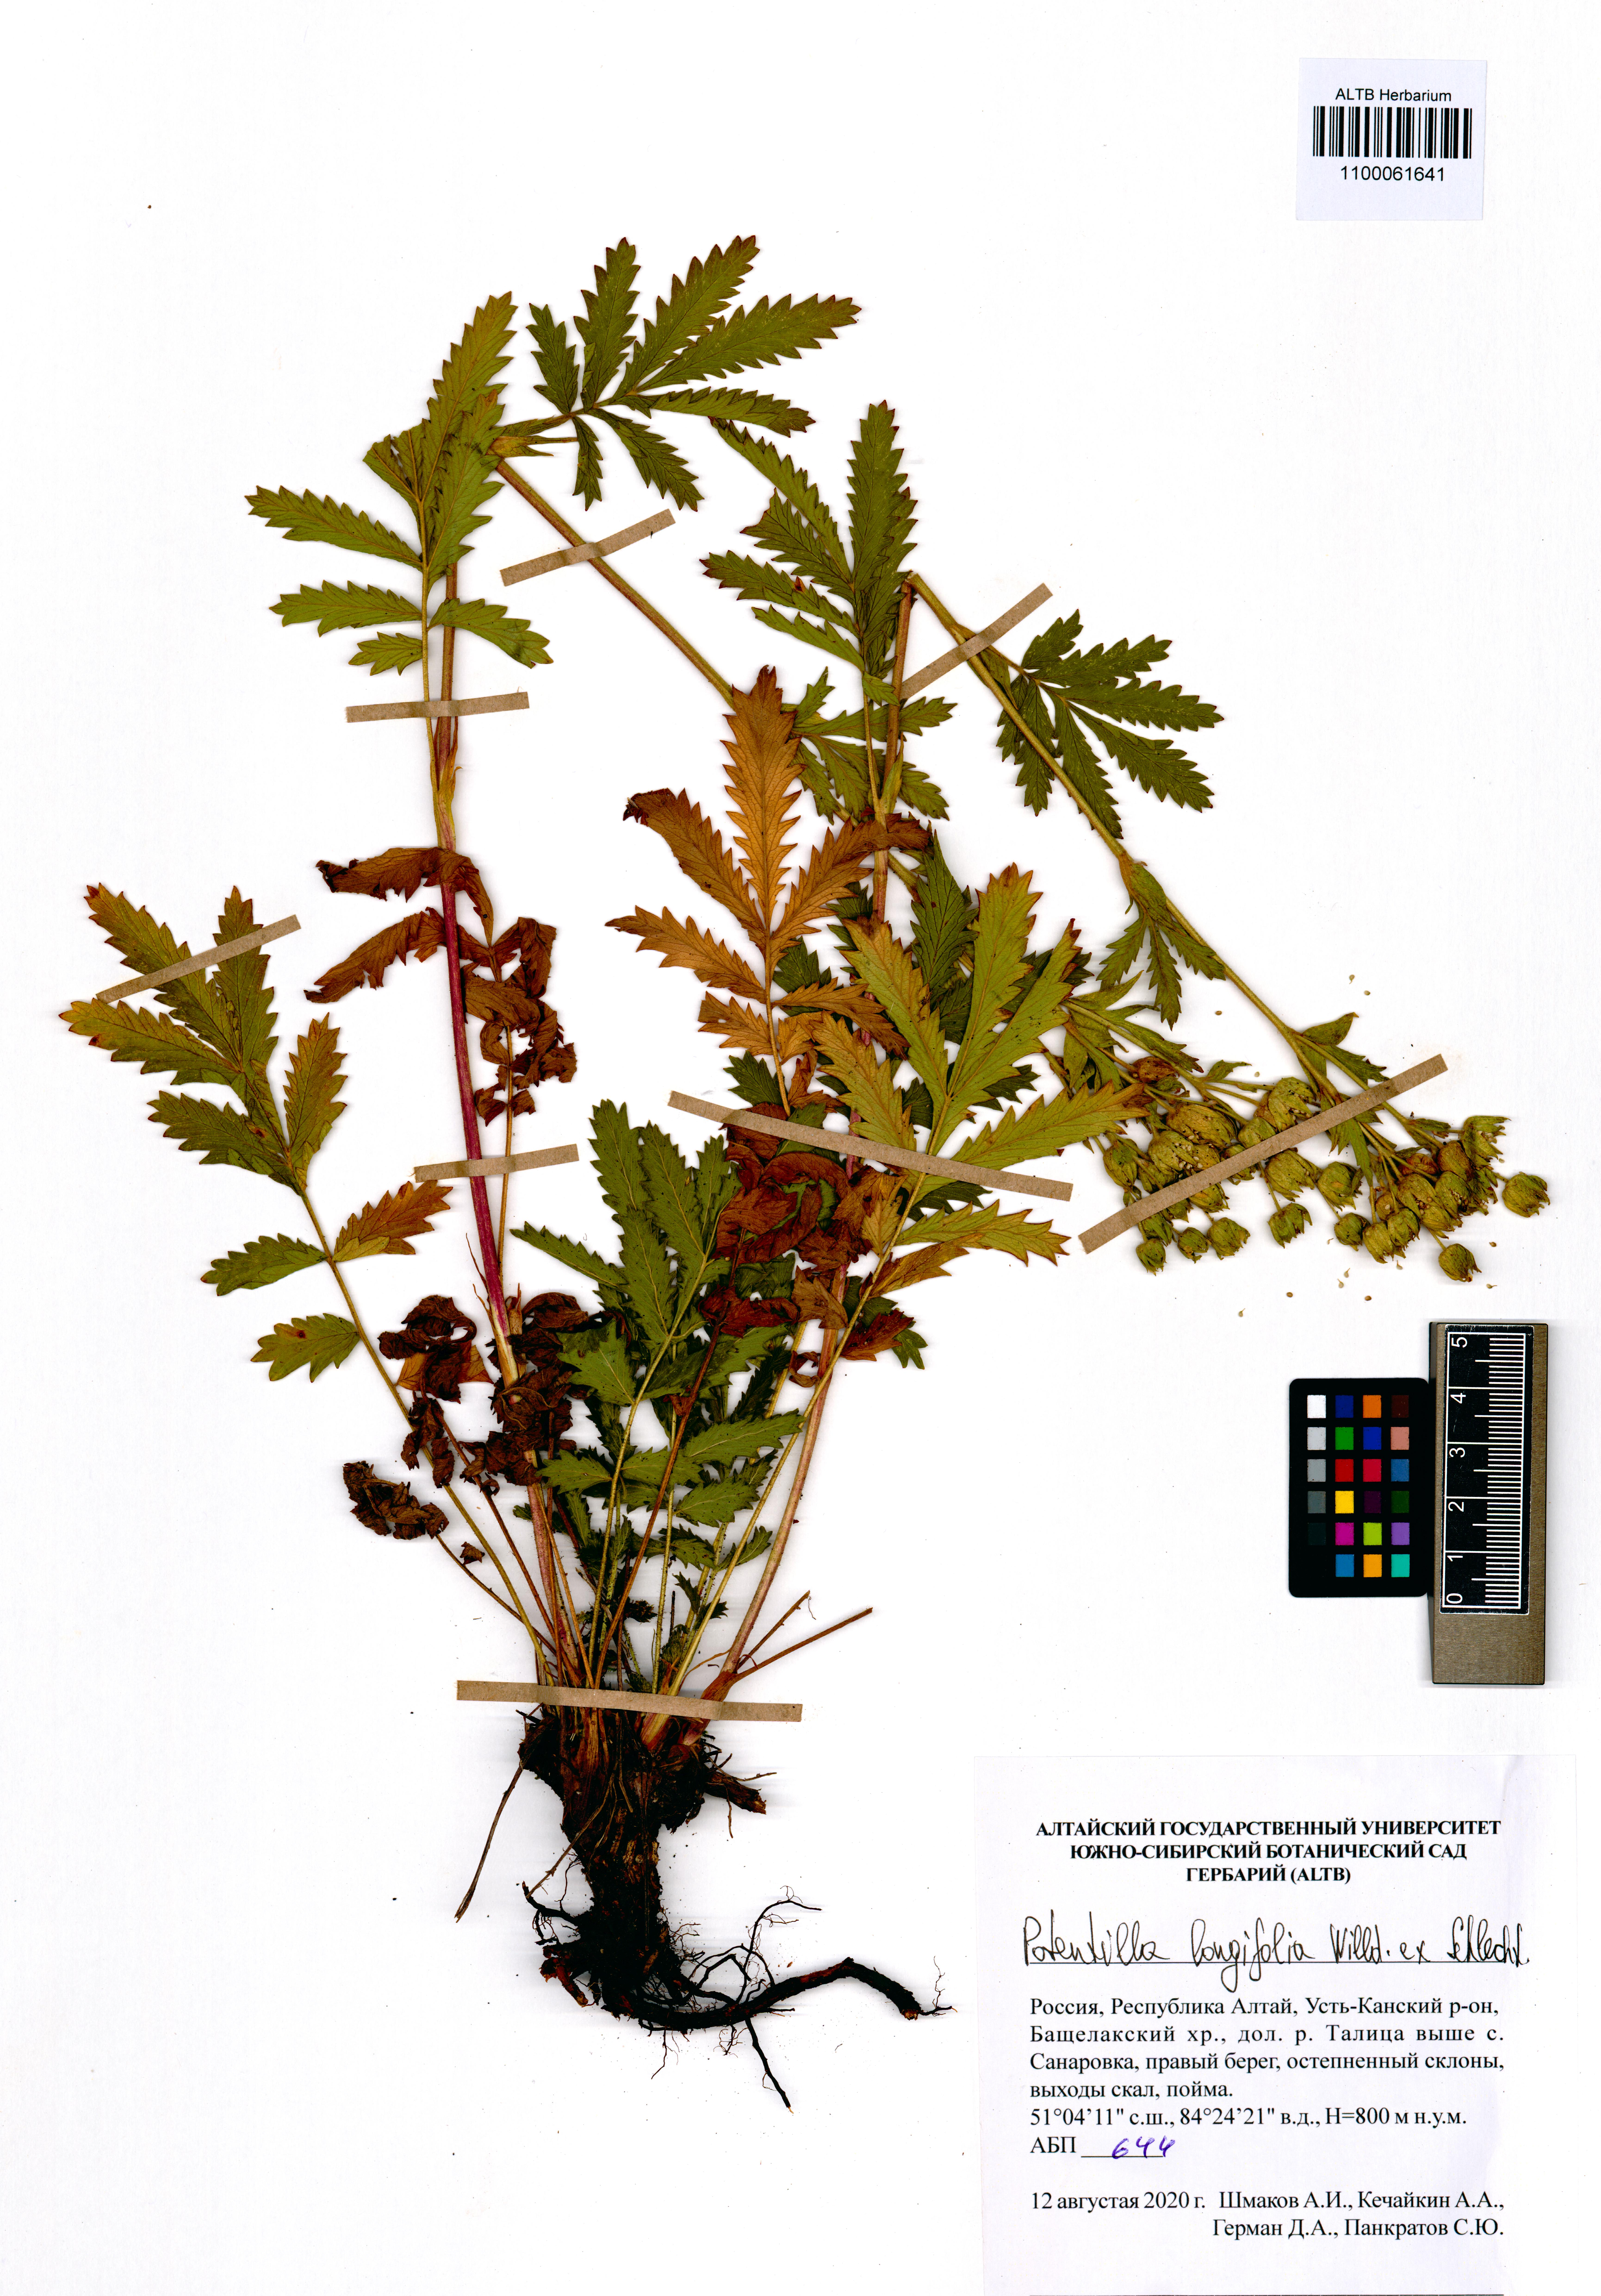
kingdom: Plantae
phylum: Tracheophyta
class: Magnoliopsida
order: Rosales
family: Rosaceae
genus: Potentilla
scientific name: Potentilla longifolia
